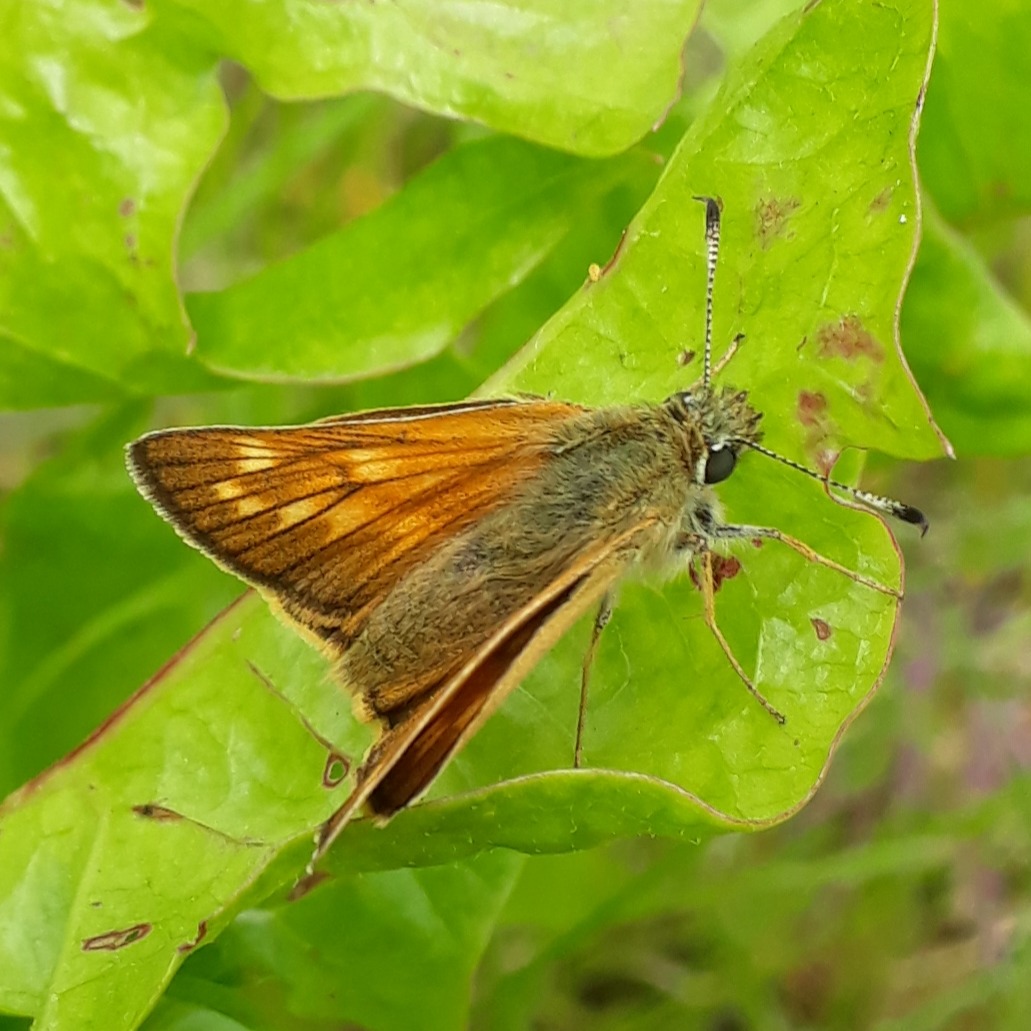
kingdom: Animalia
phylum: Arthropoda
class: Insecta
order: Lepidoptera
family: Hesperiidae
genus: Ochlodes
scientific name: Ochlodes venata
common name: Stor bredpande
